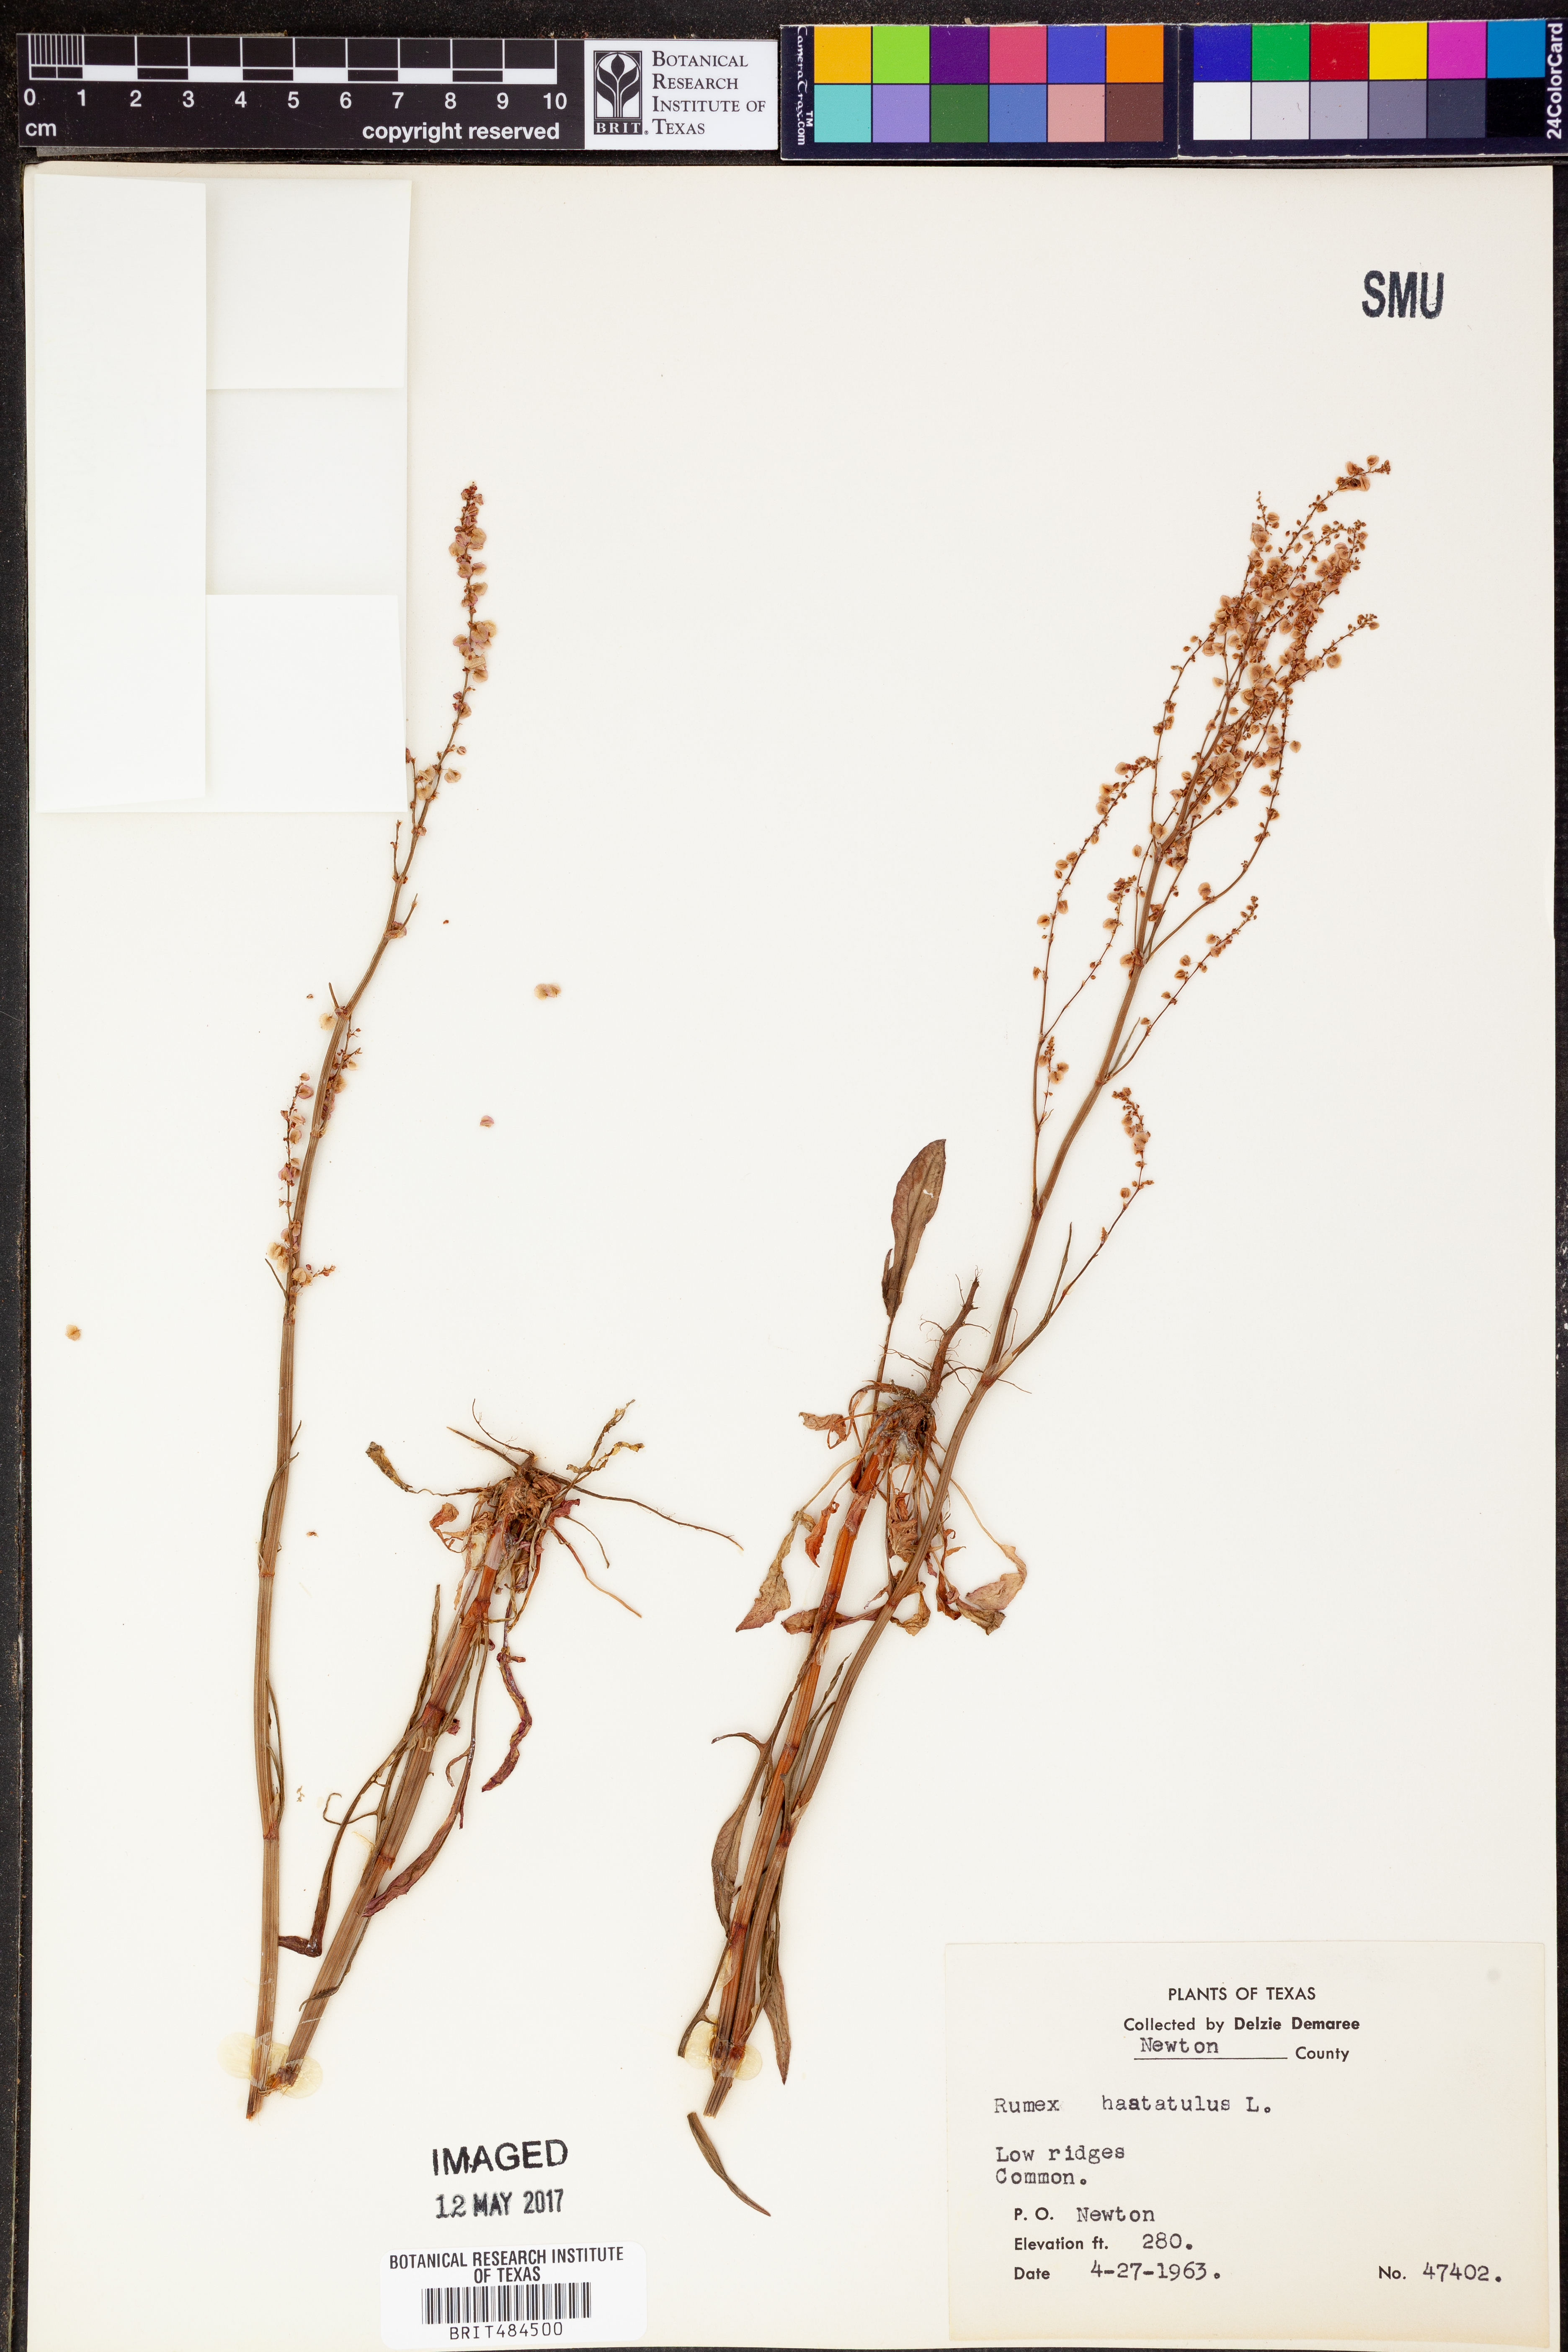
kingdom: Plantae
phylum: Tracheophyta
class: Magnoliopsida
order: Caryophyllales
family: Polygonaceae
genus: Rumex
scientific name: Rumex hastatulus
